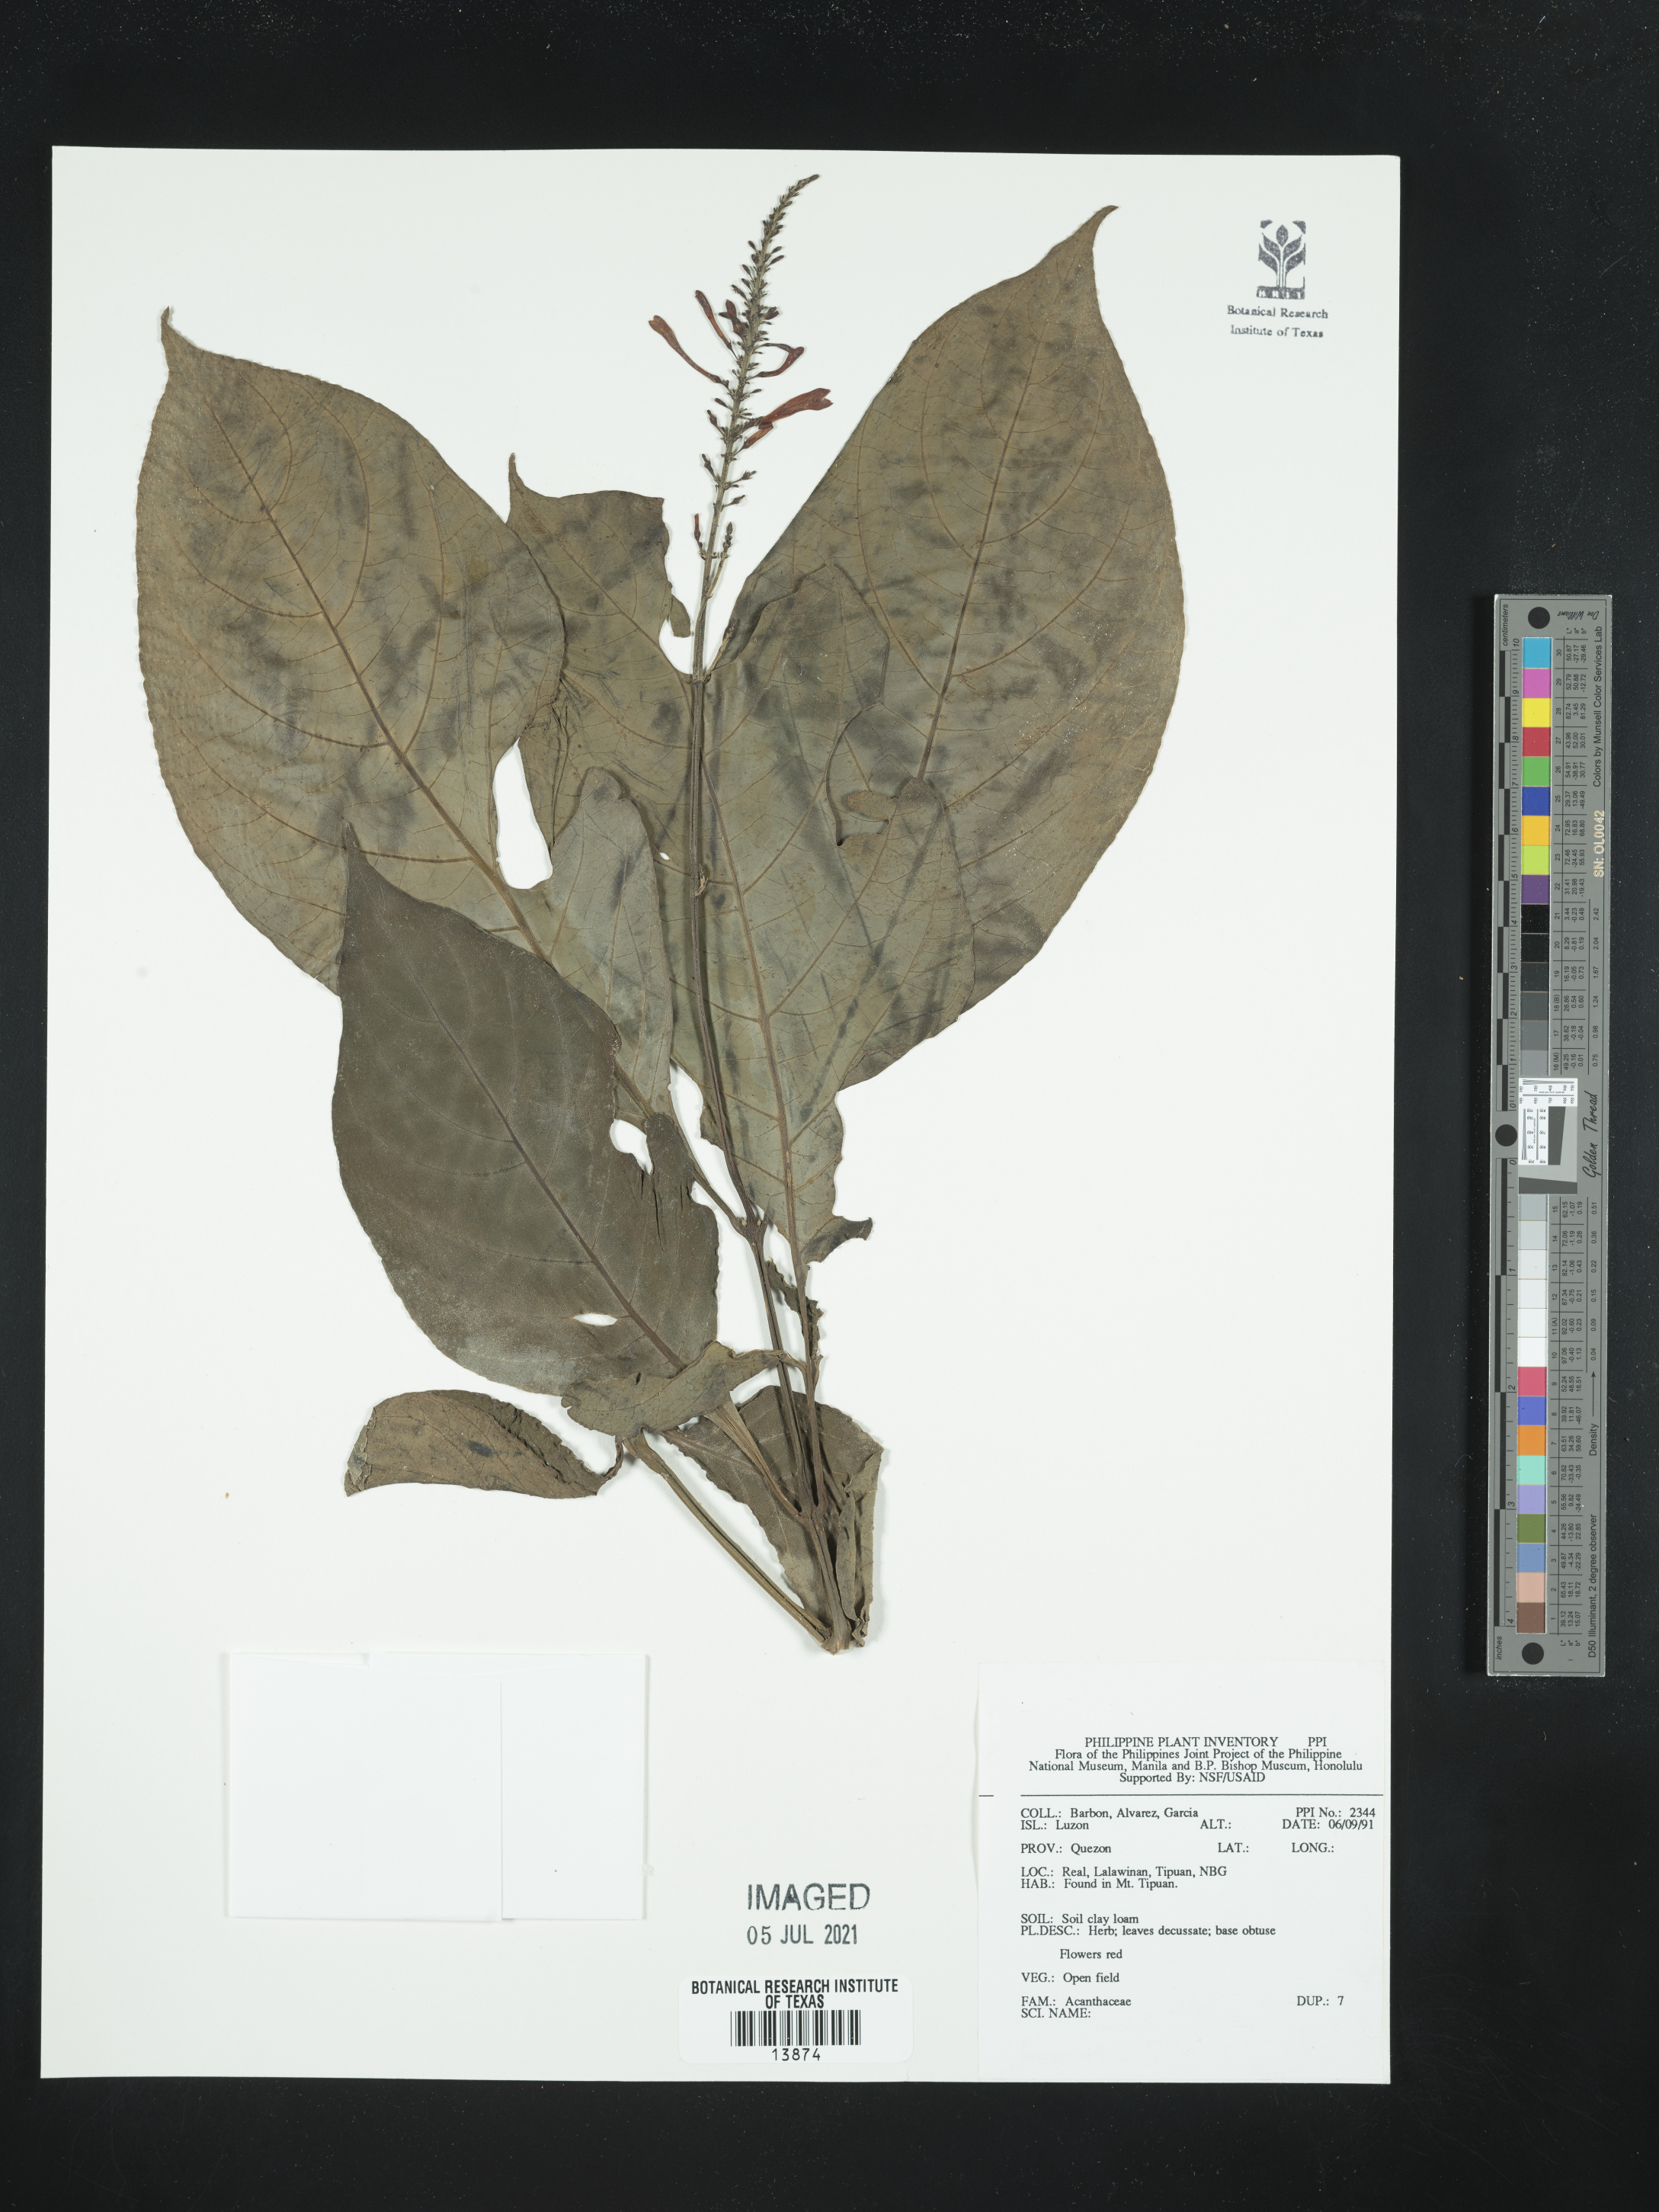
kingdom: Plantae
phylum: Tracheophyta
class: Magnoliopsida
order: Lamiales
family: Acanthaceae
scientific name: Acanthaceae
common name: Acanthaceae
